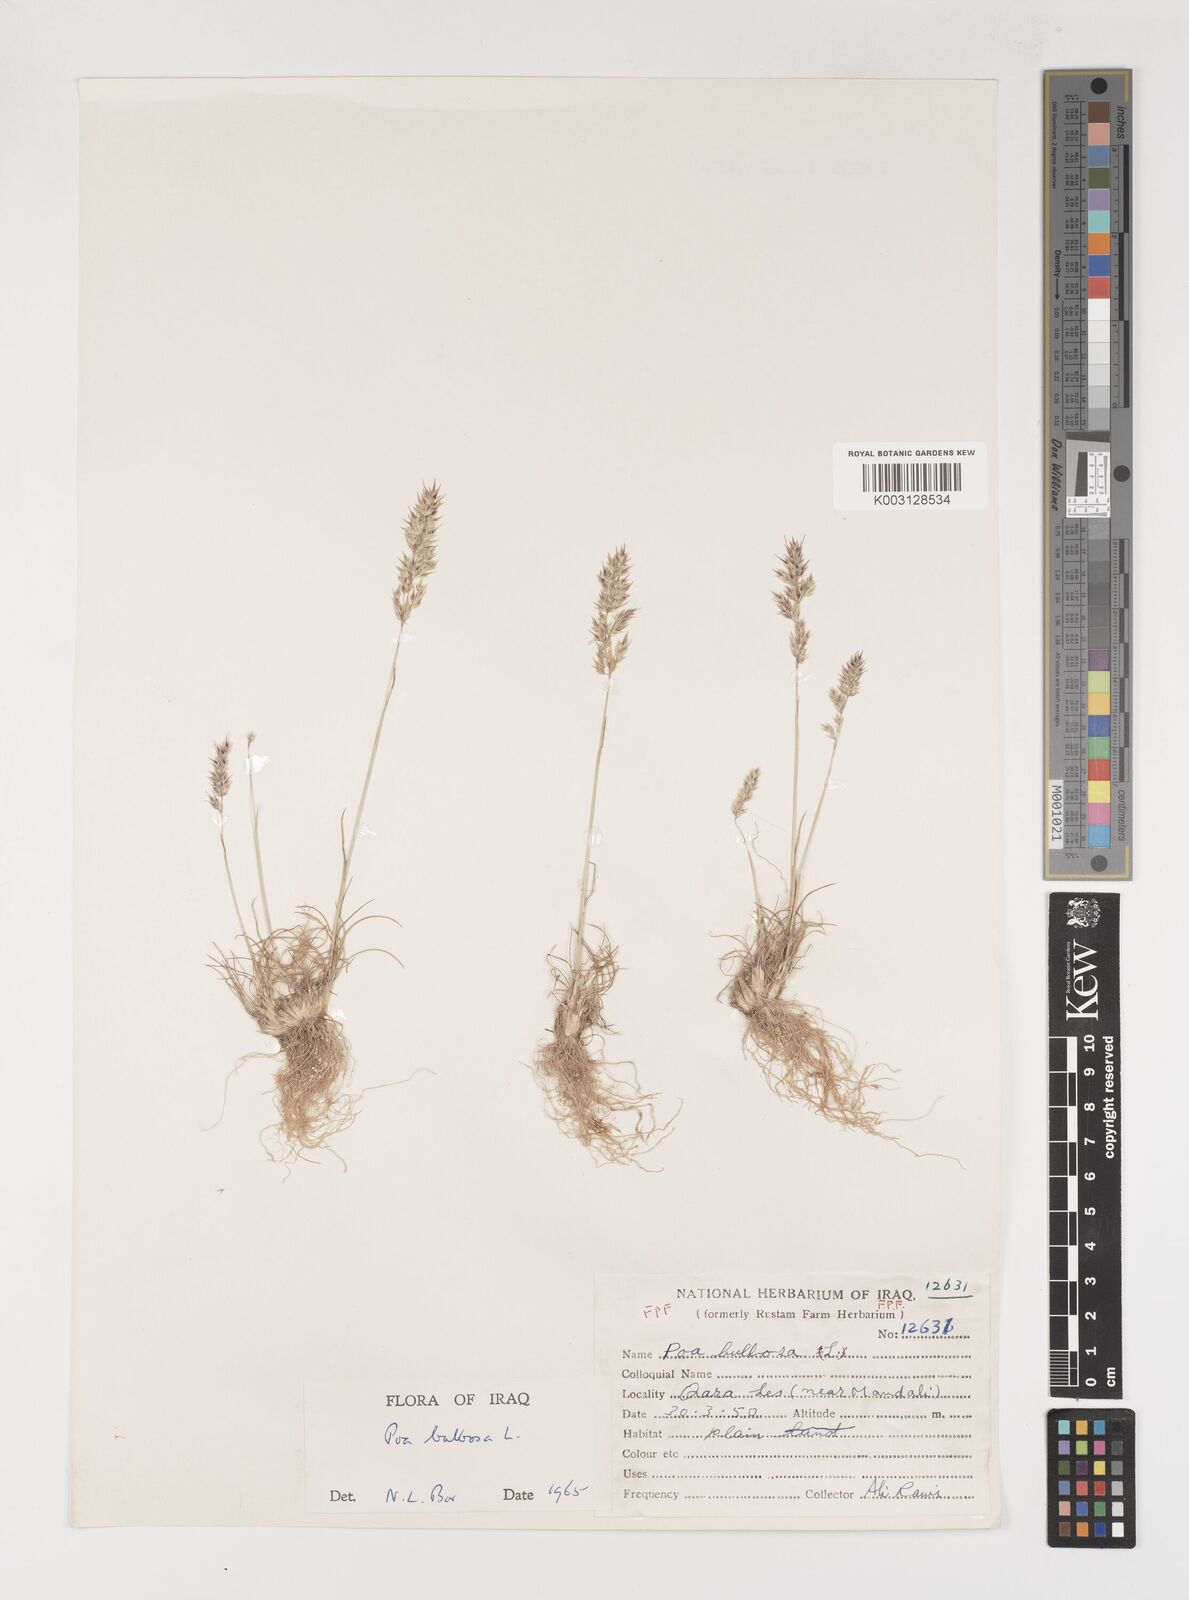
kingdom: Plantae
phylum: Tracheophyta
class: Liliopsida
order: Poales
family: Poaceae
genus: Poa
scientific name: Poa sinaica
